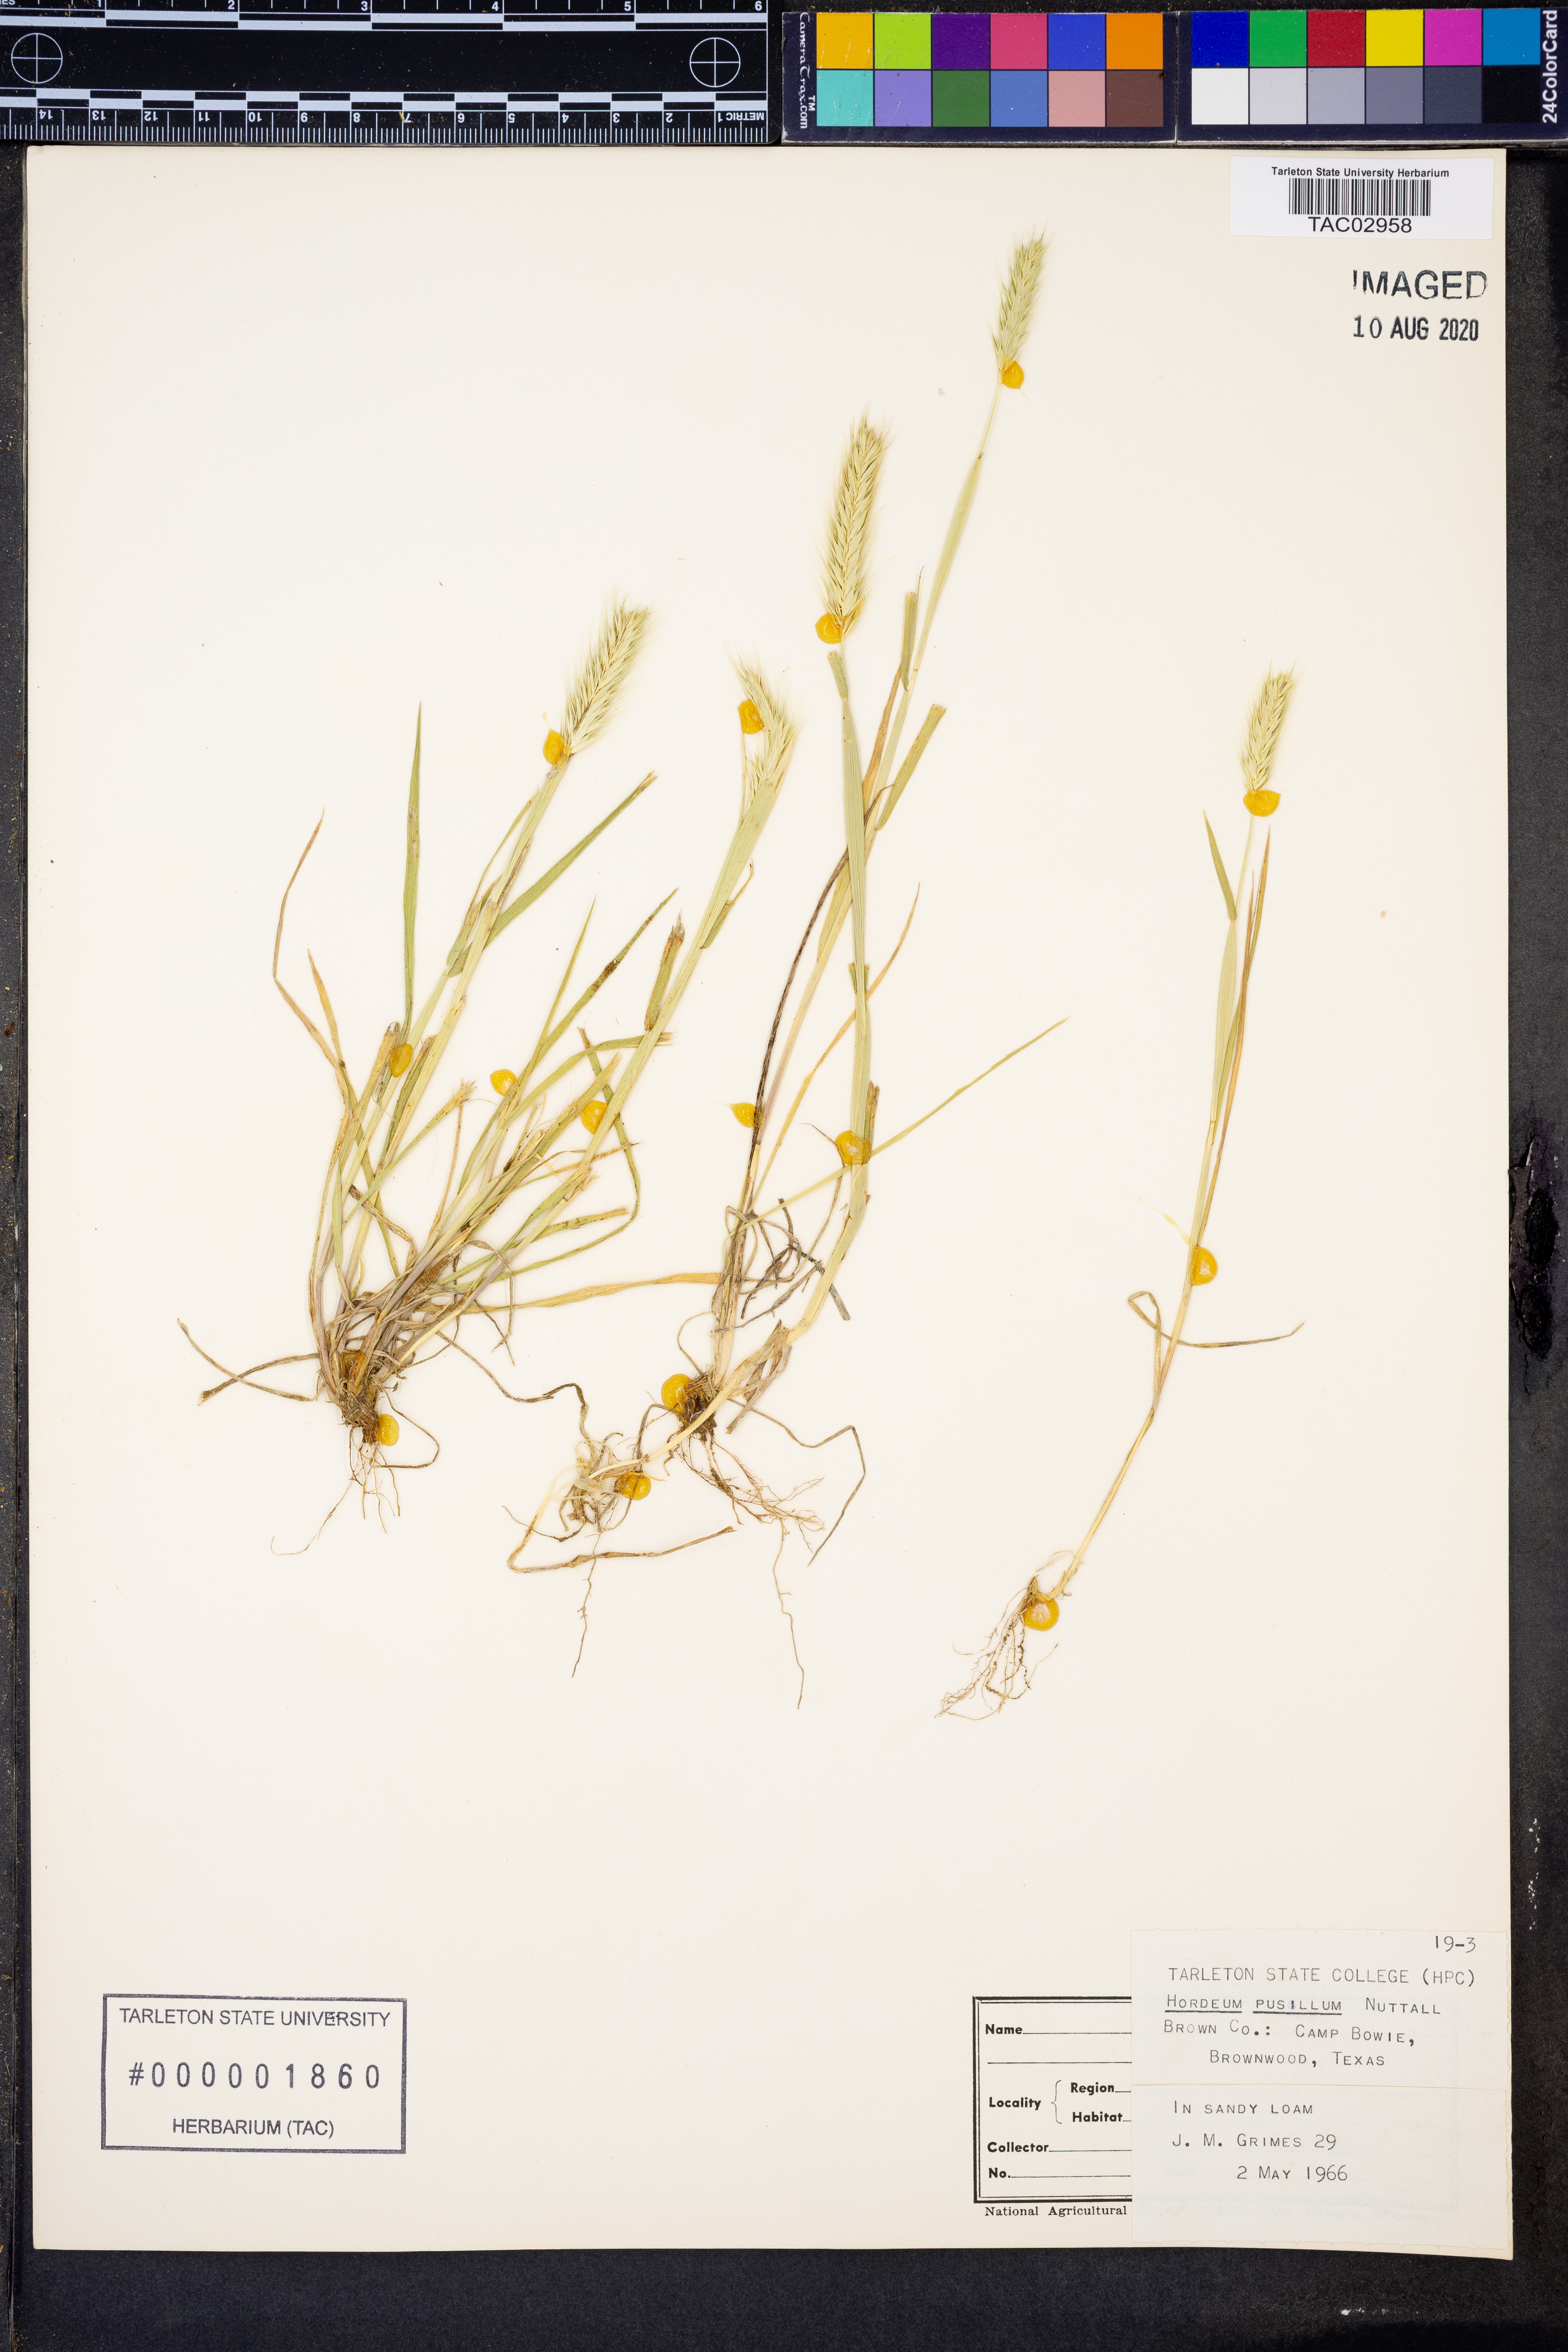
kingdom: Plantae
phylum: Tracheophyta
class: Liliopsida
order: Poales
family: Poaceae
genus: Hordeum
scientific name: Hordeum pusillum
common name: Little barley
